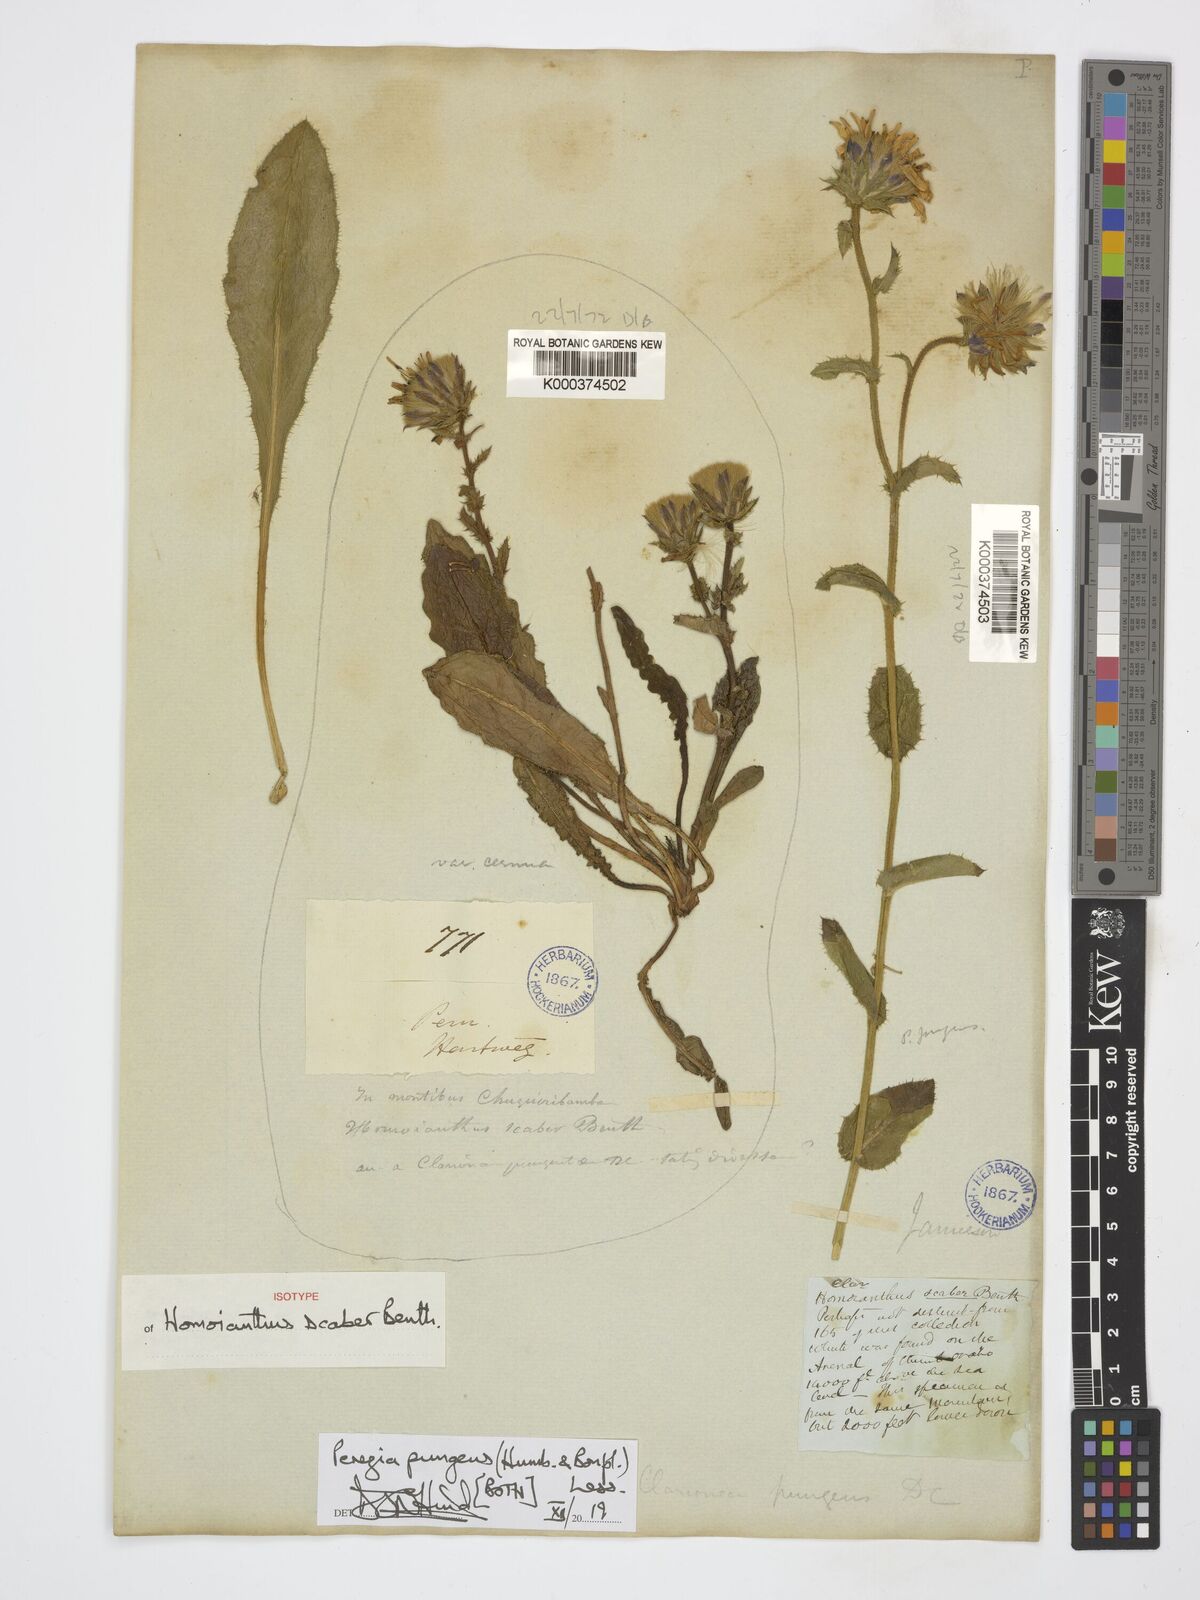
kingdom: Plantae
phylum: Tracheophyta
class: Magnoliopsida
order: Asterales
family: Asteraceae
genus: Perezia
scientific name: Perezia pungens
